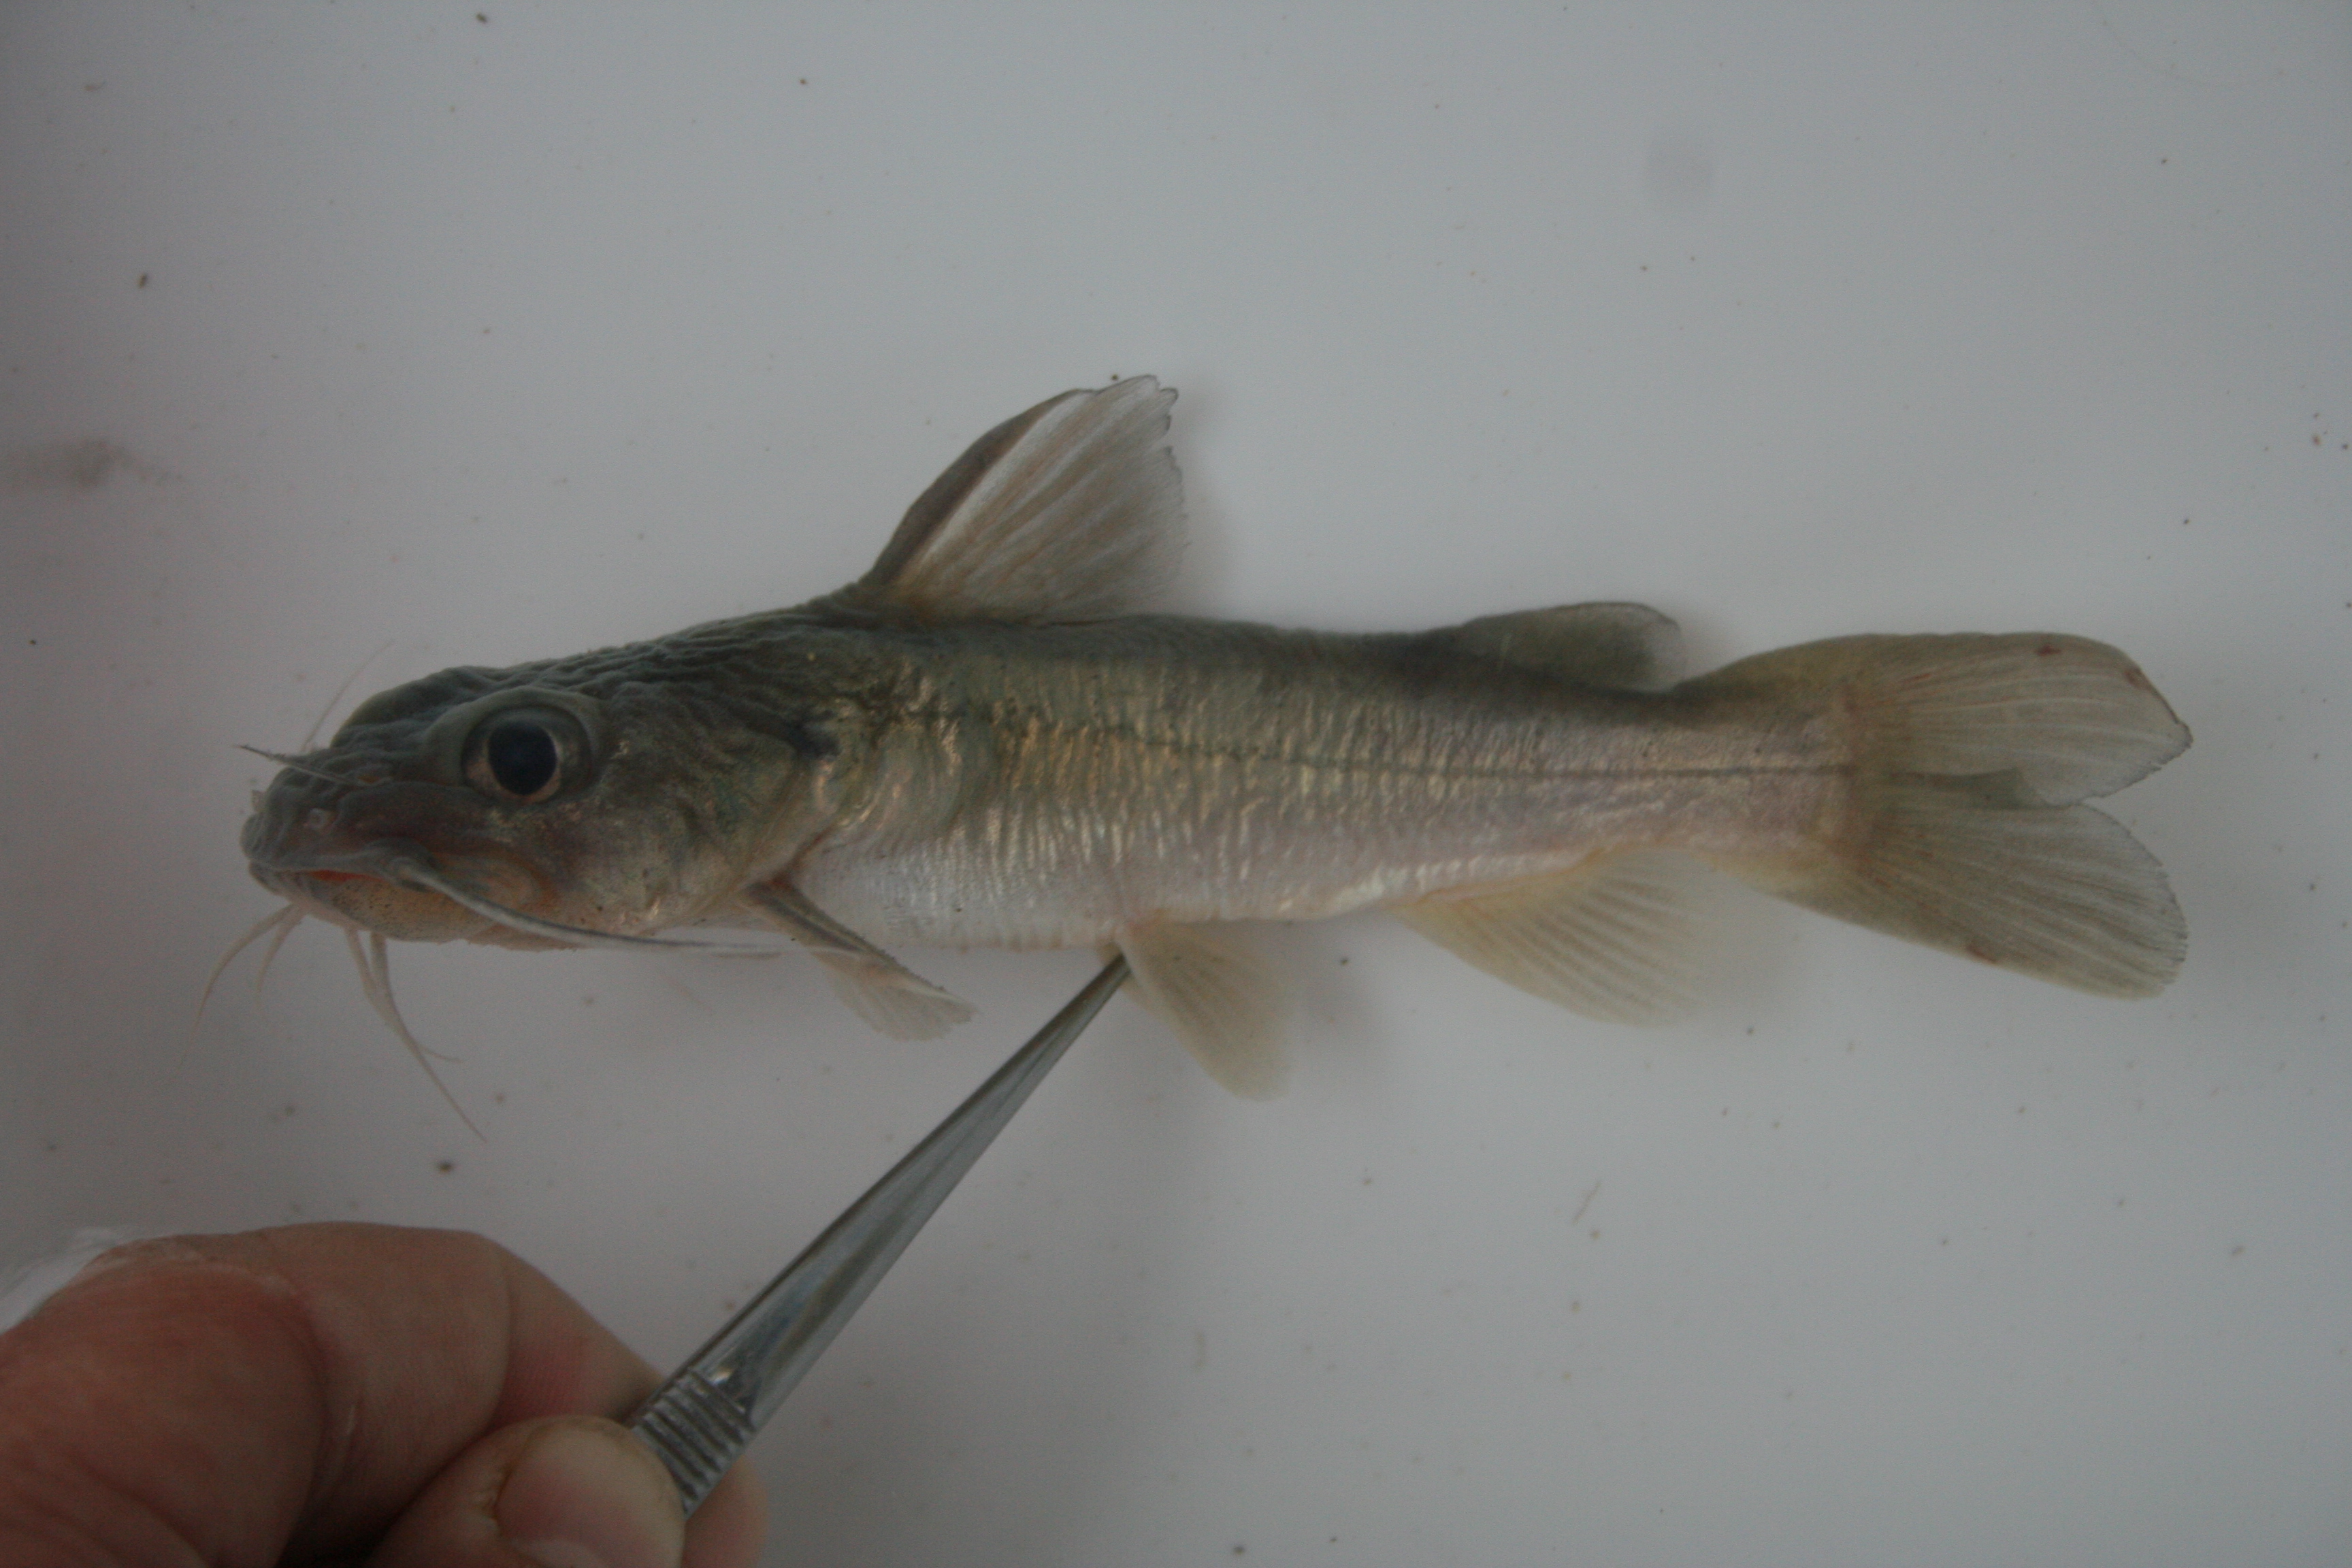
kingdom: Animalia
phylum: Chordata
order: Siluriformes
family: Claroteidae
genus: Chrysichthys
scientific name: Chrysichthys ansorgii
